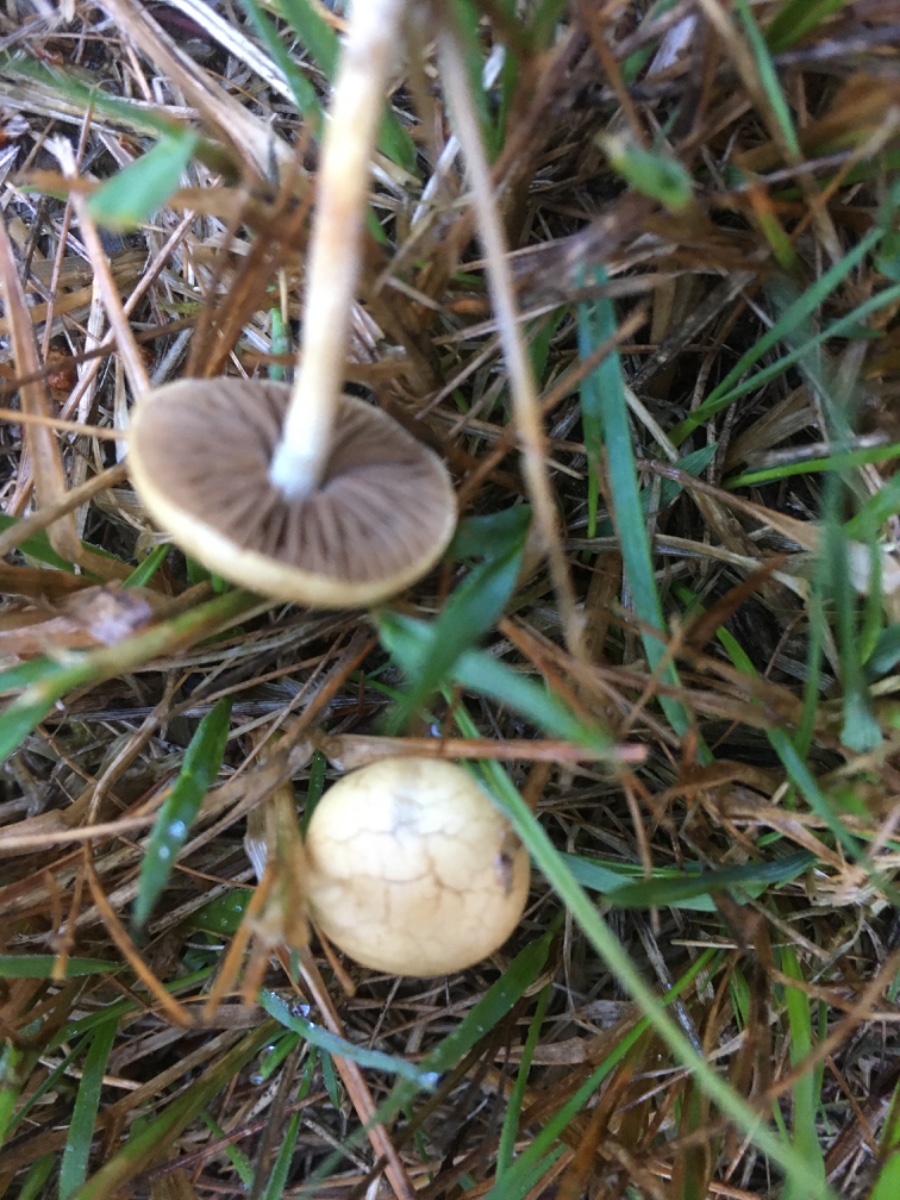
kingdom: Fungi
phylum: Basidiomycota
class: Agaricomycetes
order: Agaricales
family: Strophariaceae
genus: Agrocybe
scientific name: Agrocybe pediades
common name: almindelig agerhat
